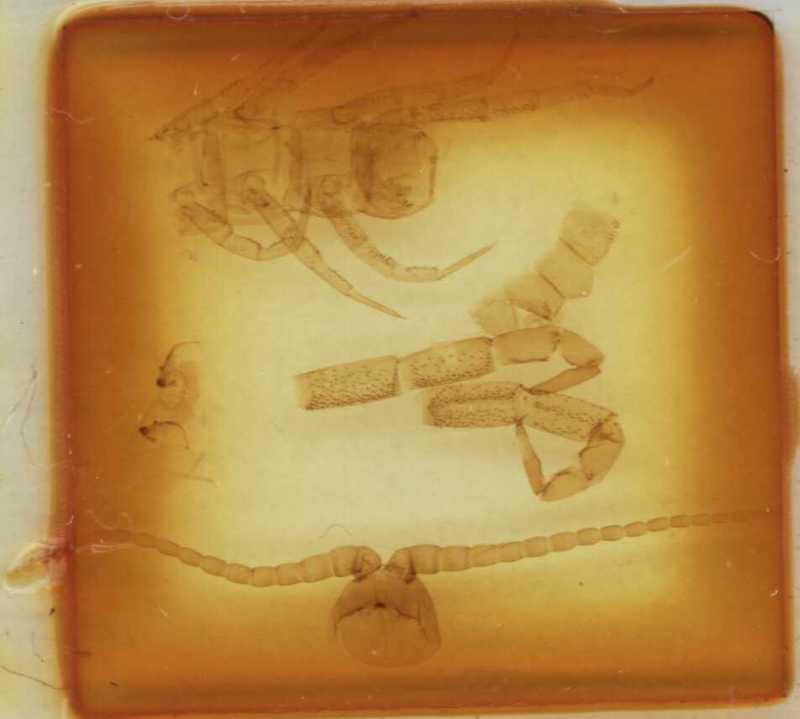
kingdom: Animalia
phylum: Arthropoda
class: Chilopoda
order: Scolopendromorpha
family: Cryptopidae
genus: Cryptops
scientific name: Cryptops triangulifer
